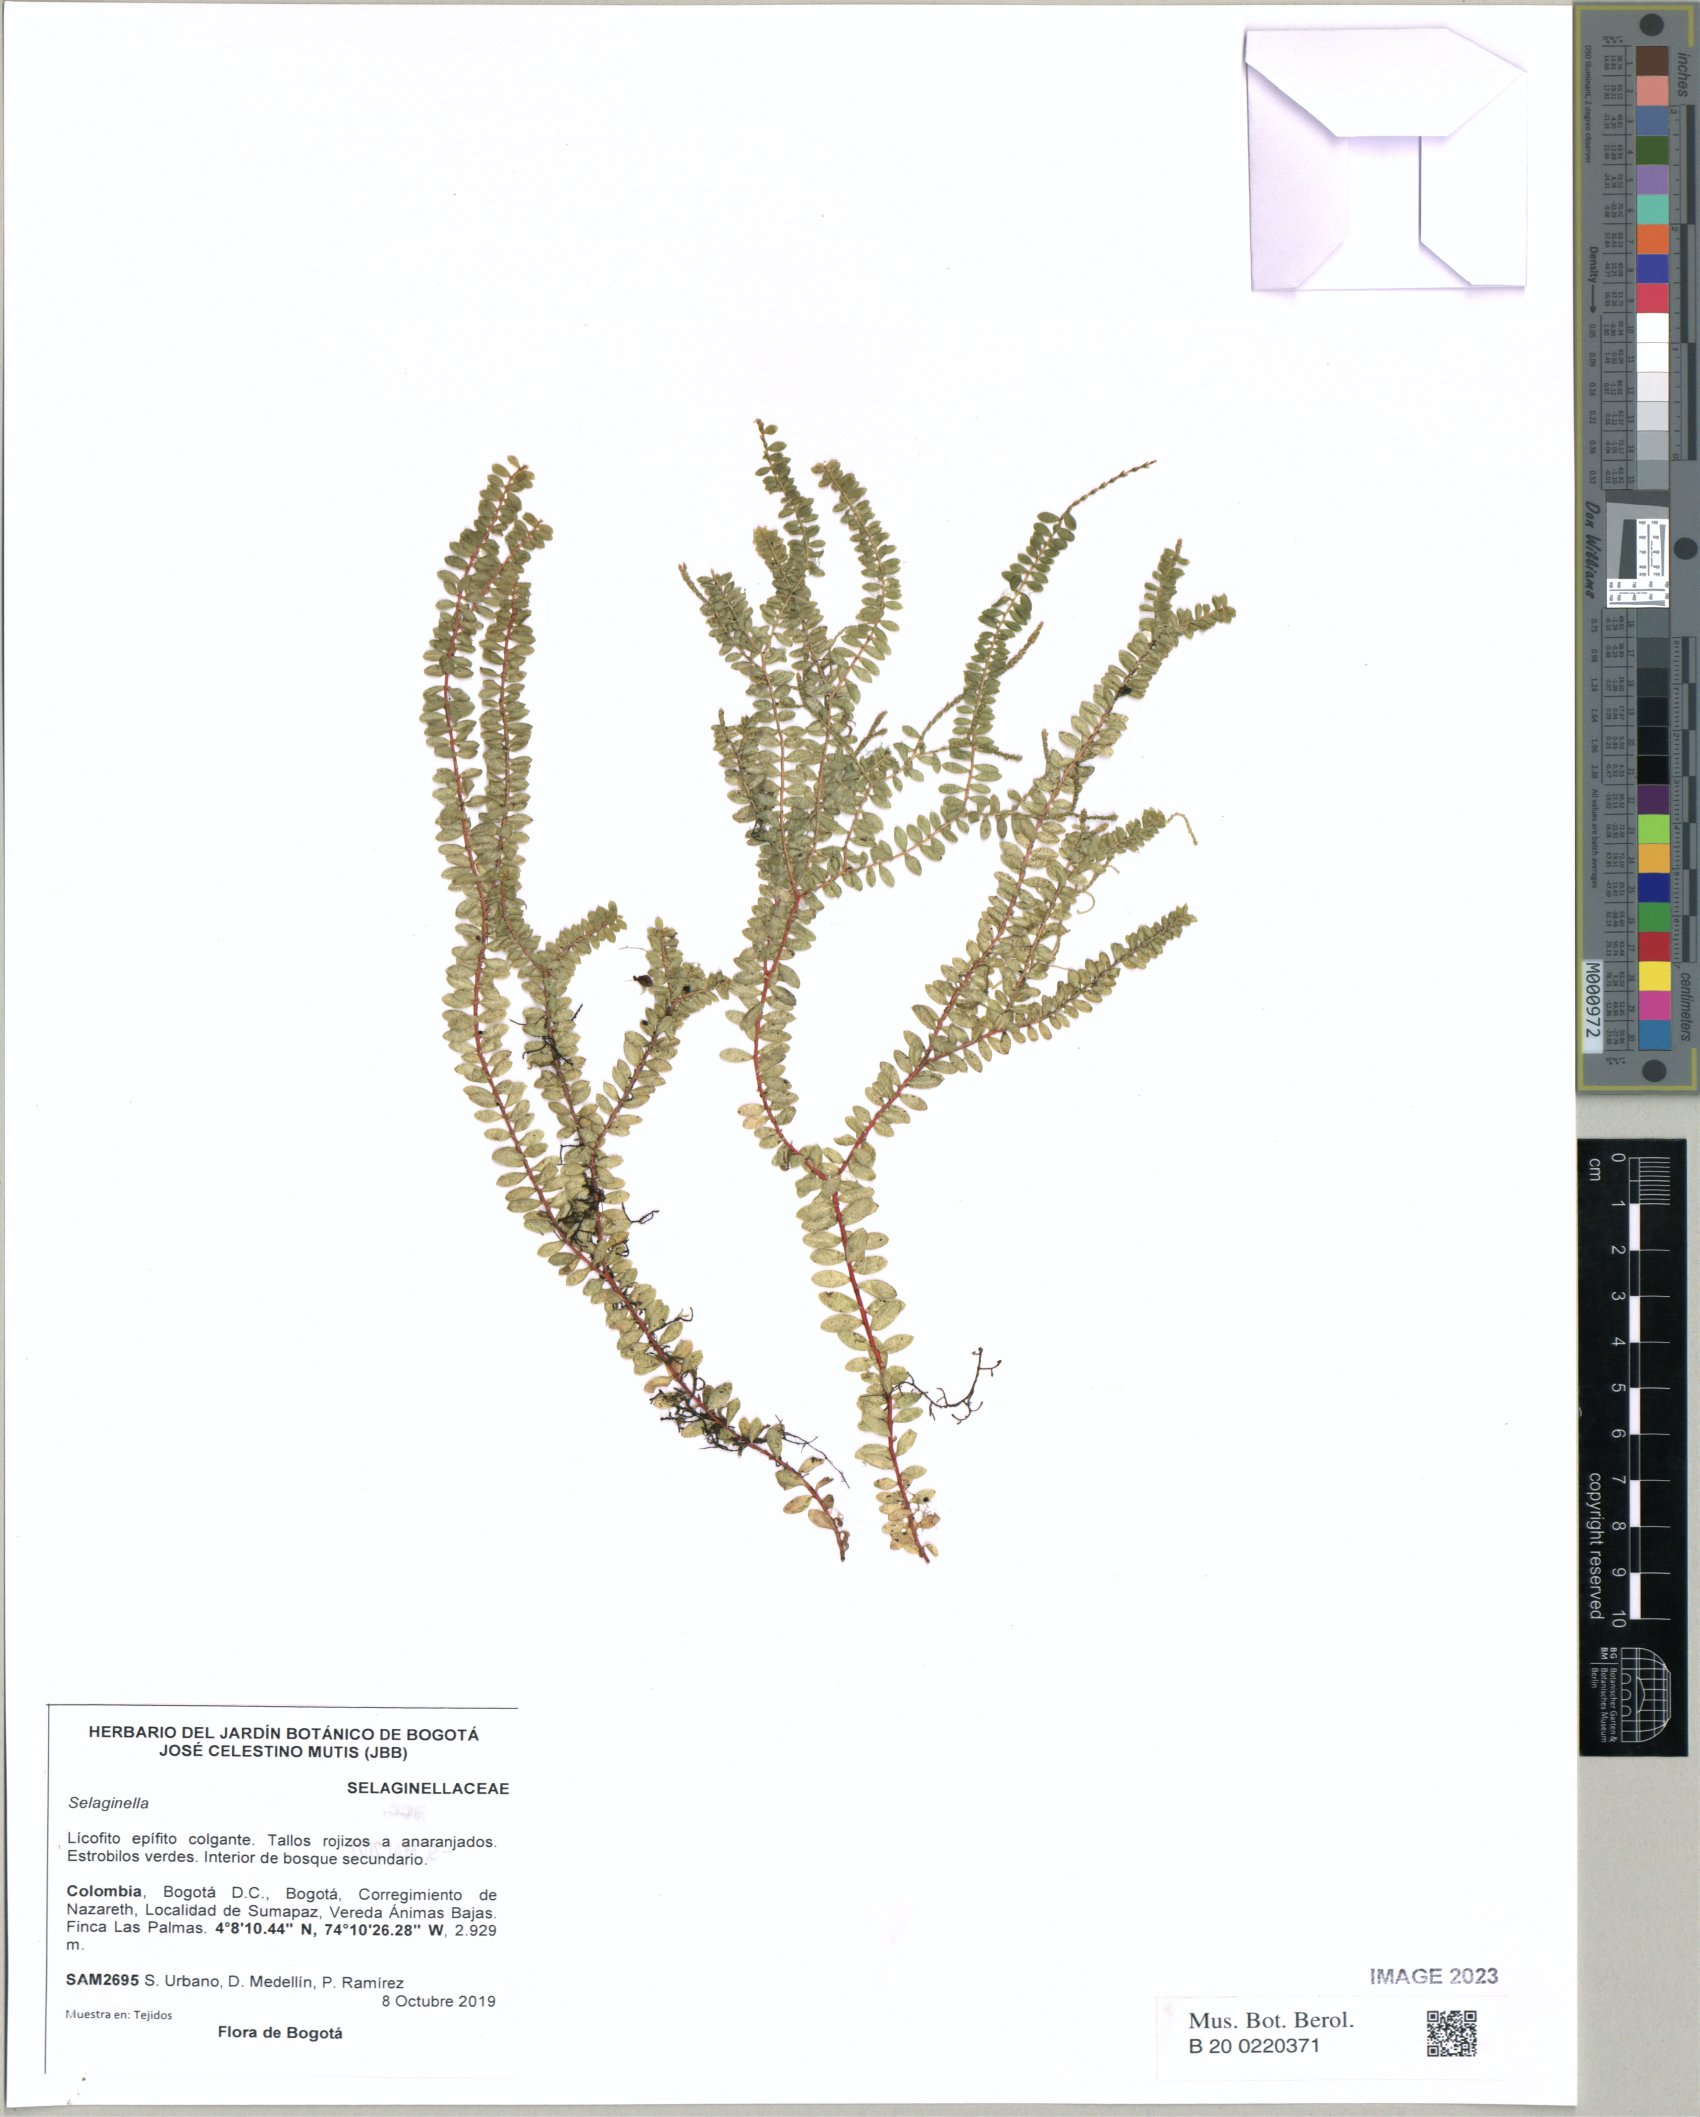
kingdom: Plantae
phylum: Tracheophyta
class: Lycopodiopsida
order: Selaginellales
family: Selaginellaceae
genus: Selaginella
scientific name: Selaginella
